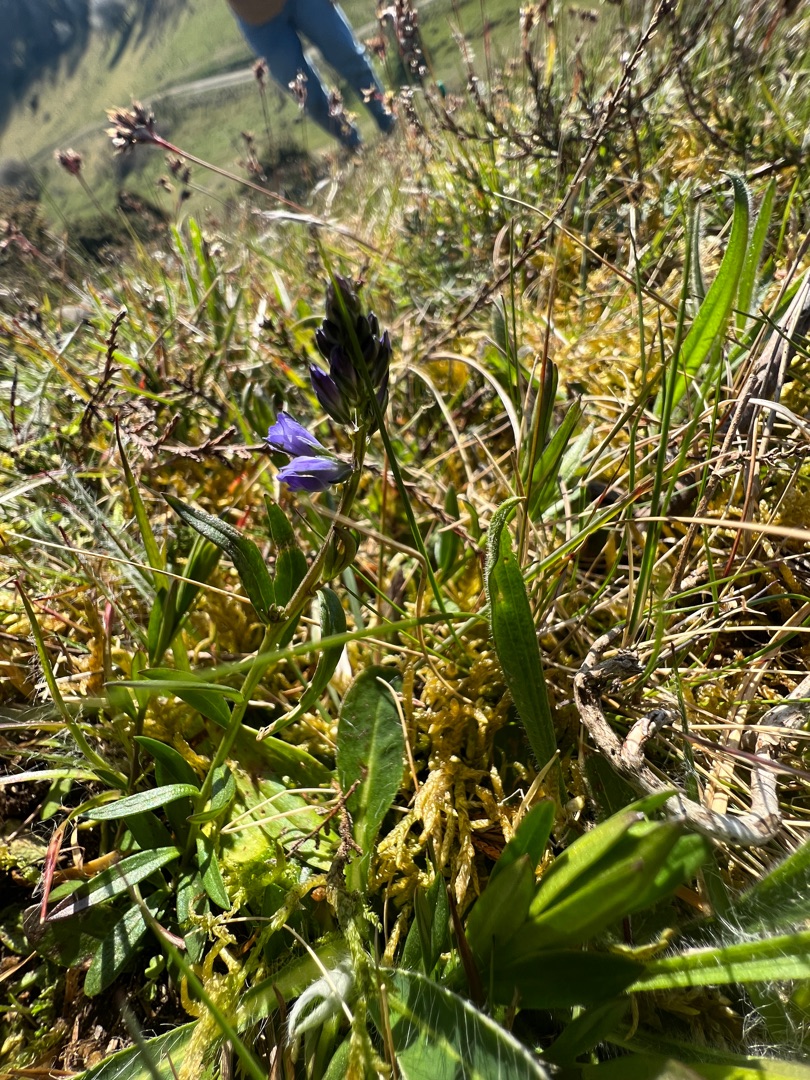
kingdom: Plantae
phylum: Tracheophyta
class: Magnoliopsida
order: Fabales
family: Polygalaceae
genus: Polygala
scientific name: Polygala vulgaris
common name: Almindelig mælkeurt
